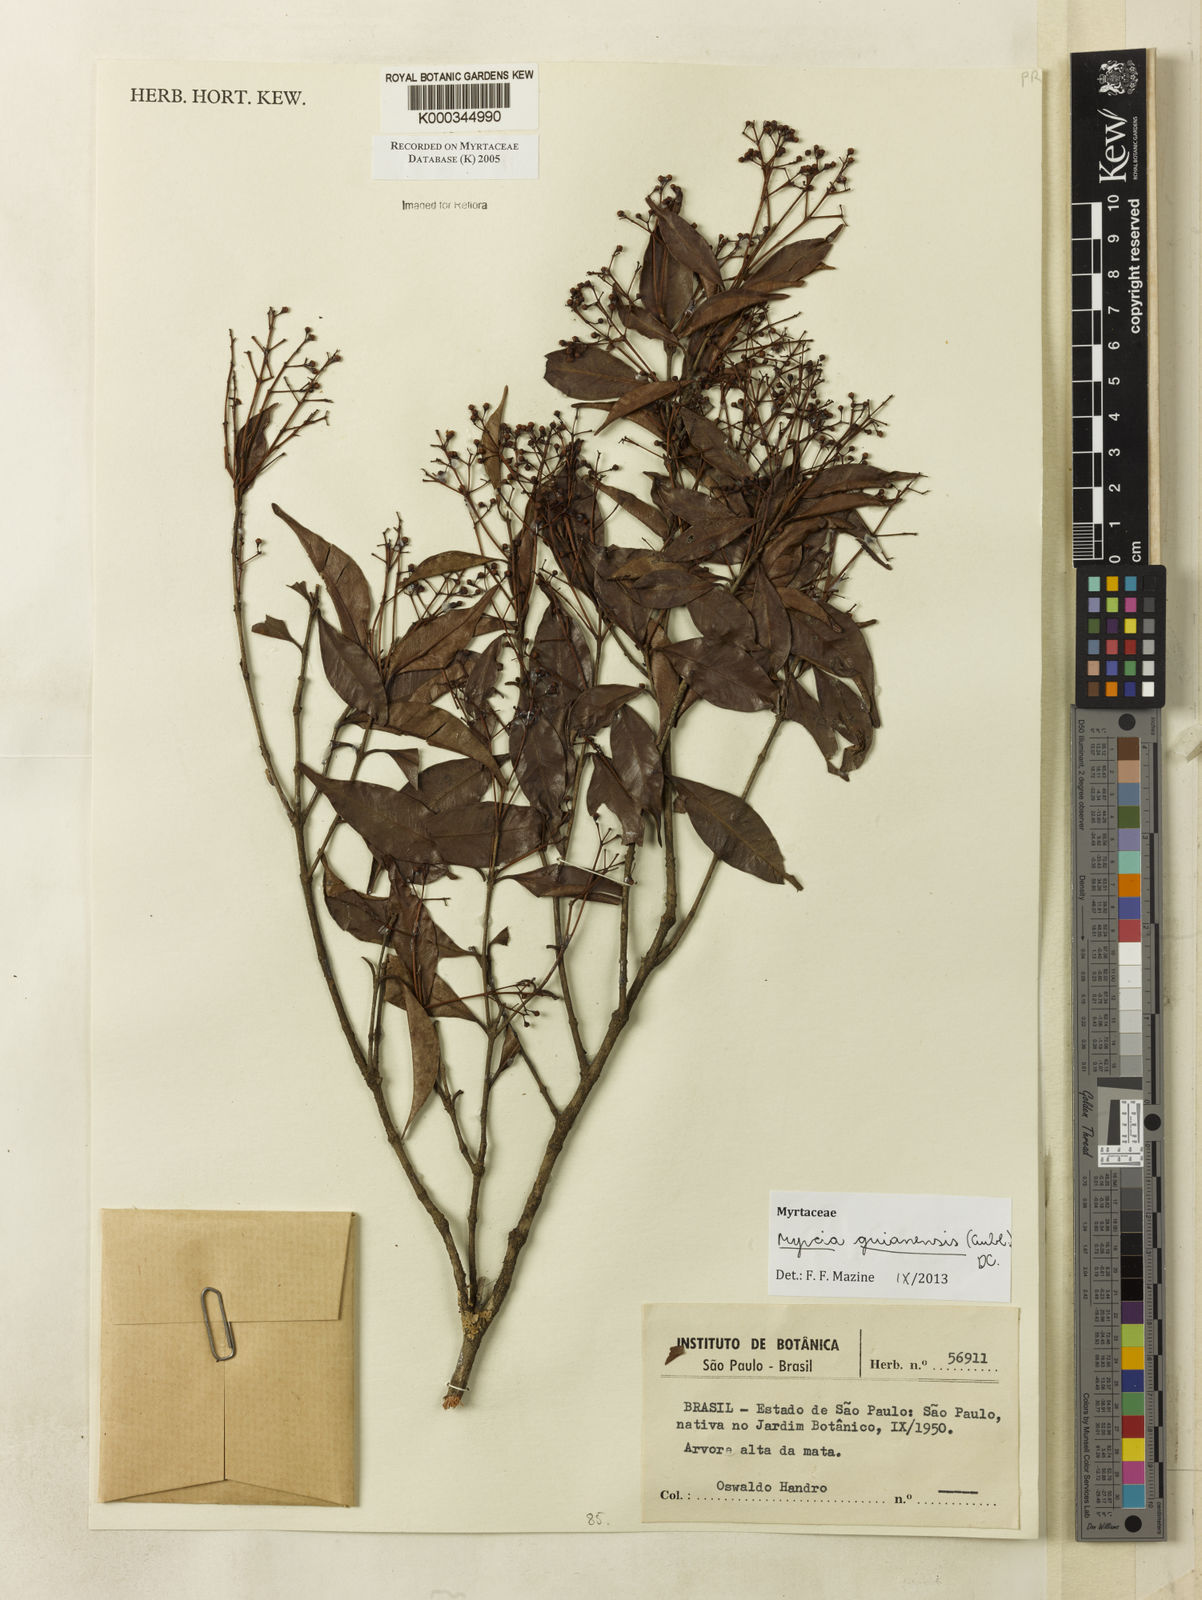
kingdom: Plantae
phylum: Tracheophyta
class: Magnoliopsida
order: Myrtales
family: Myrtaceae
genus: Myrcia
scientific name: Myrcia
